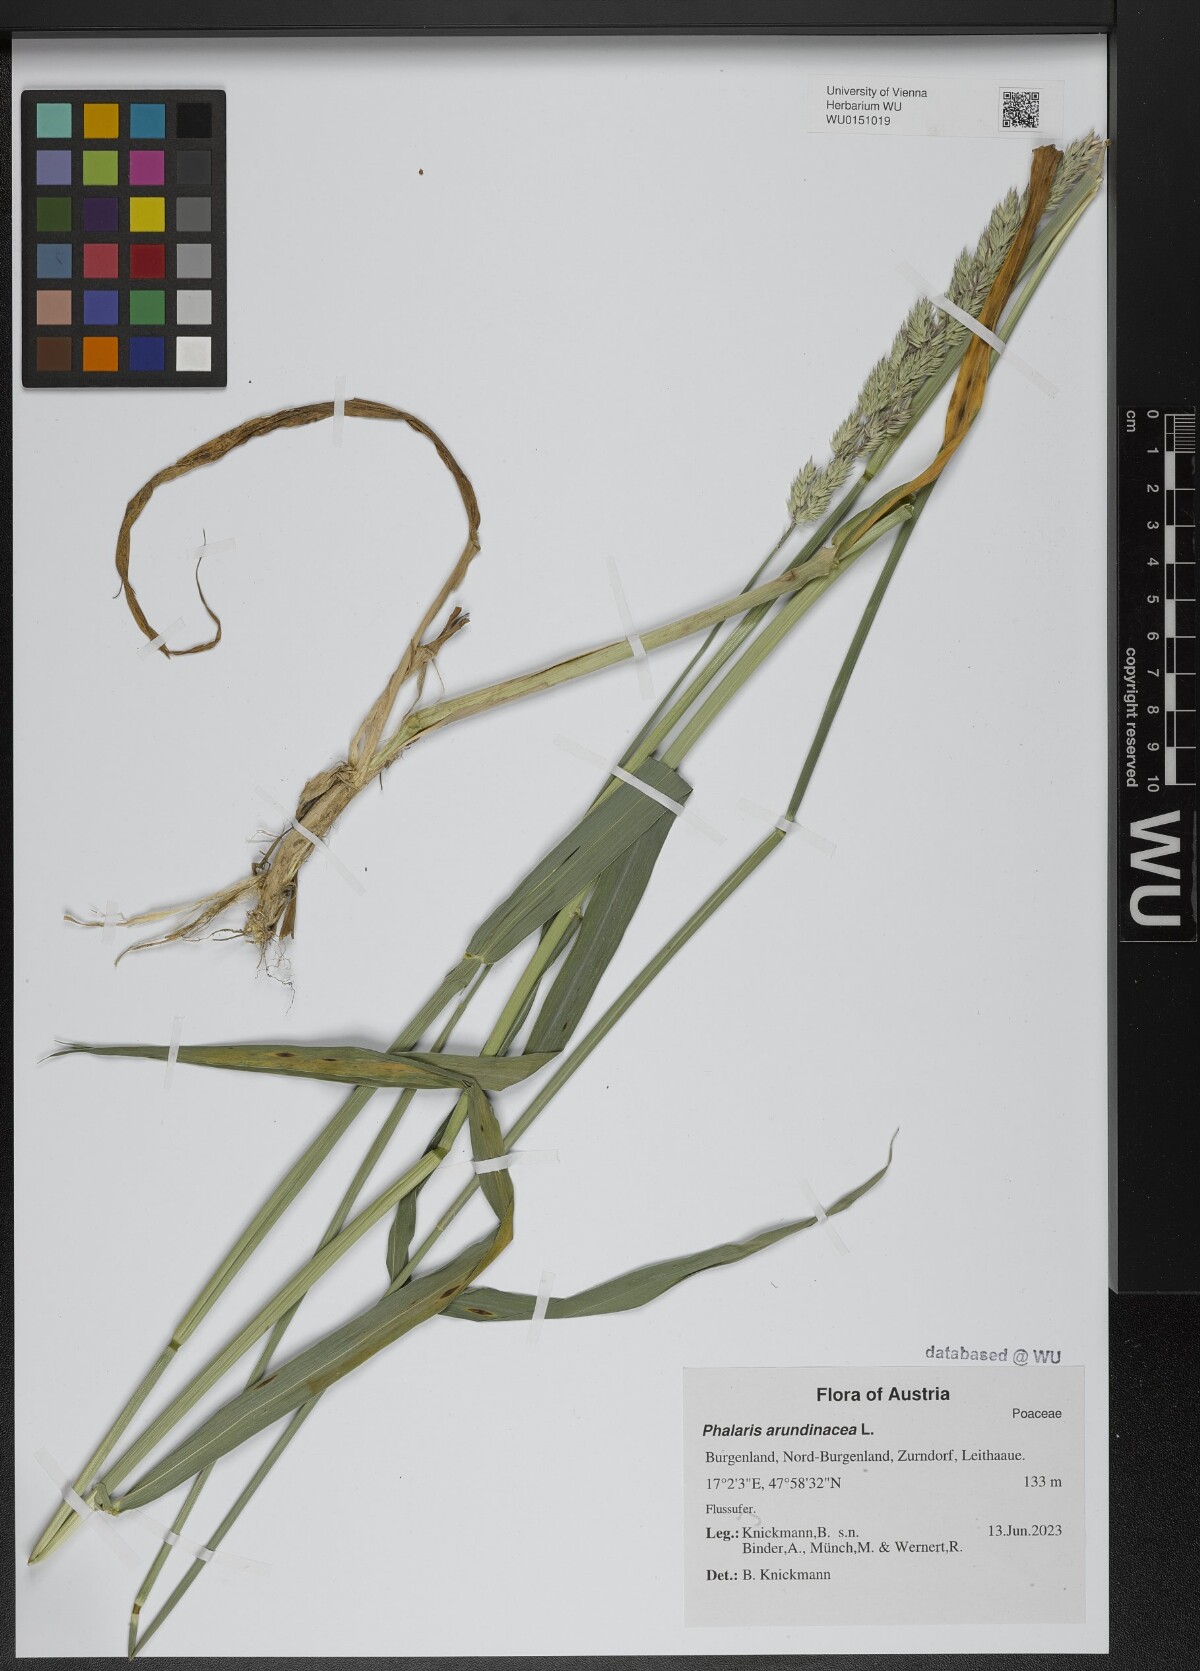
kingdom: Plantae
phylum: Tracheophyta
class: Liliopsida
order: Poales
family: Poaceae
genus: Phalaris
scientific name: Phalaris arundinacea
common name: Reed canary-grass
